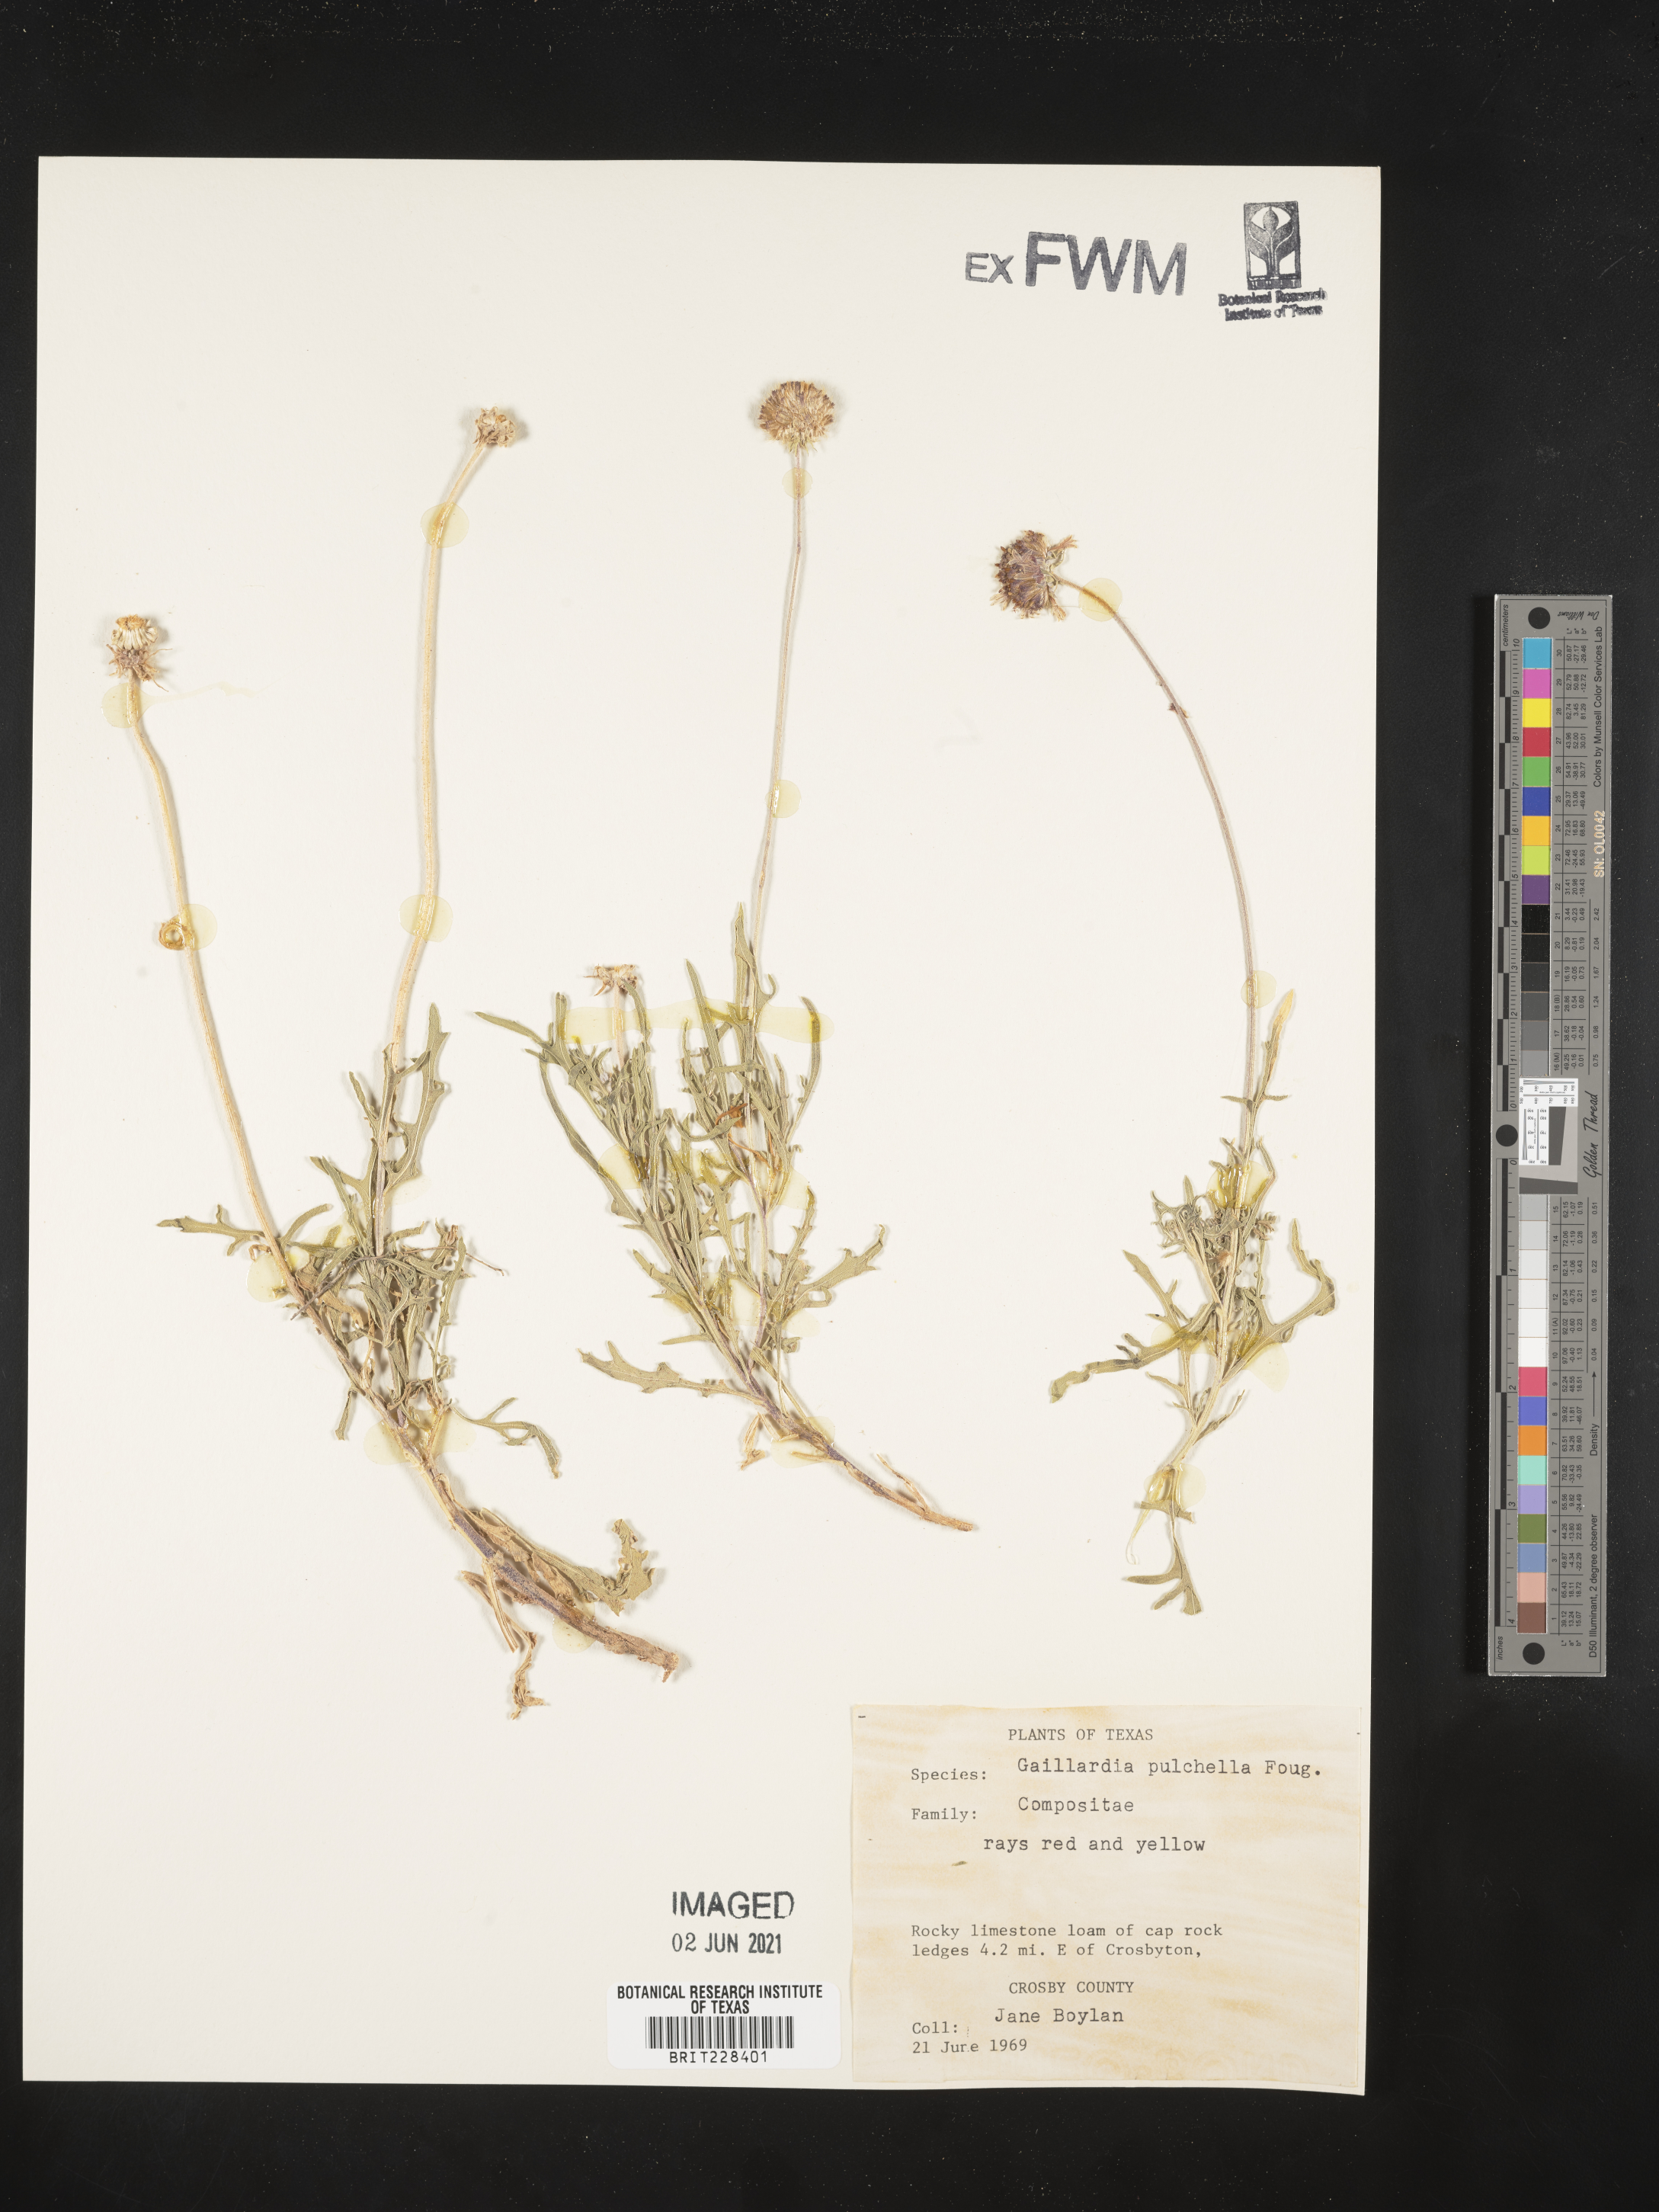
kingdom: Plantae
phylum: Tracheophyta
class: Magnoliopsida
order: Asterales
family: Asteraceae
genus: Gaillardia
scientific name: Gaillardia pulchella
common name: Firewheel
